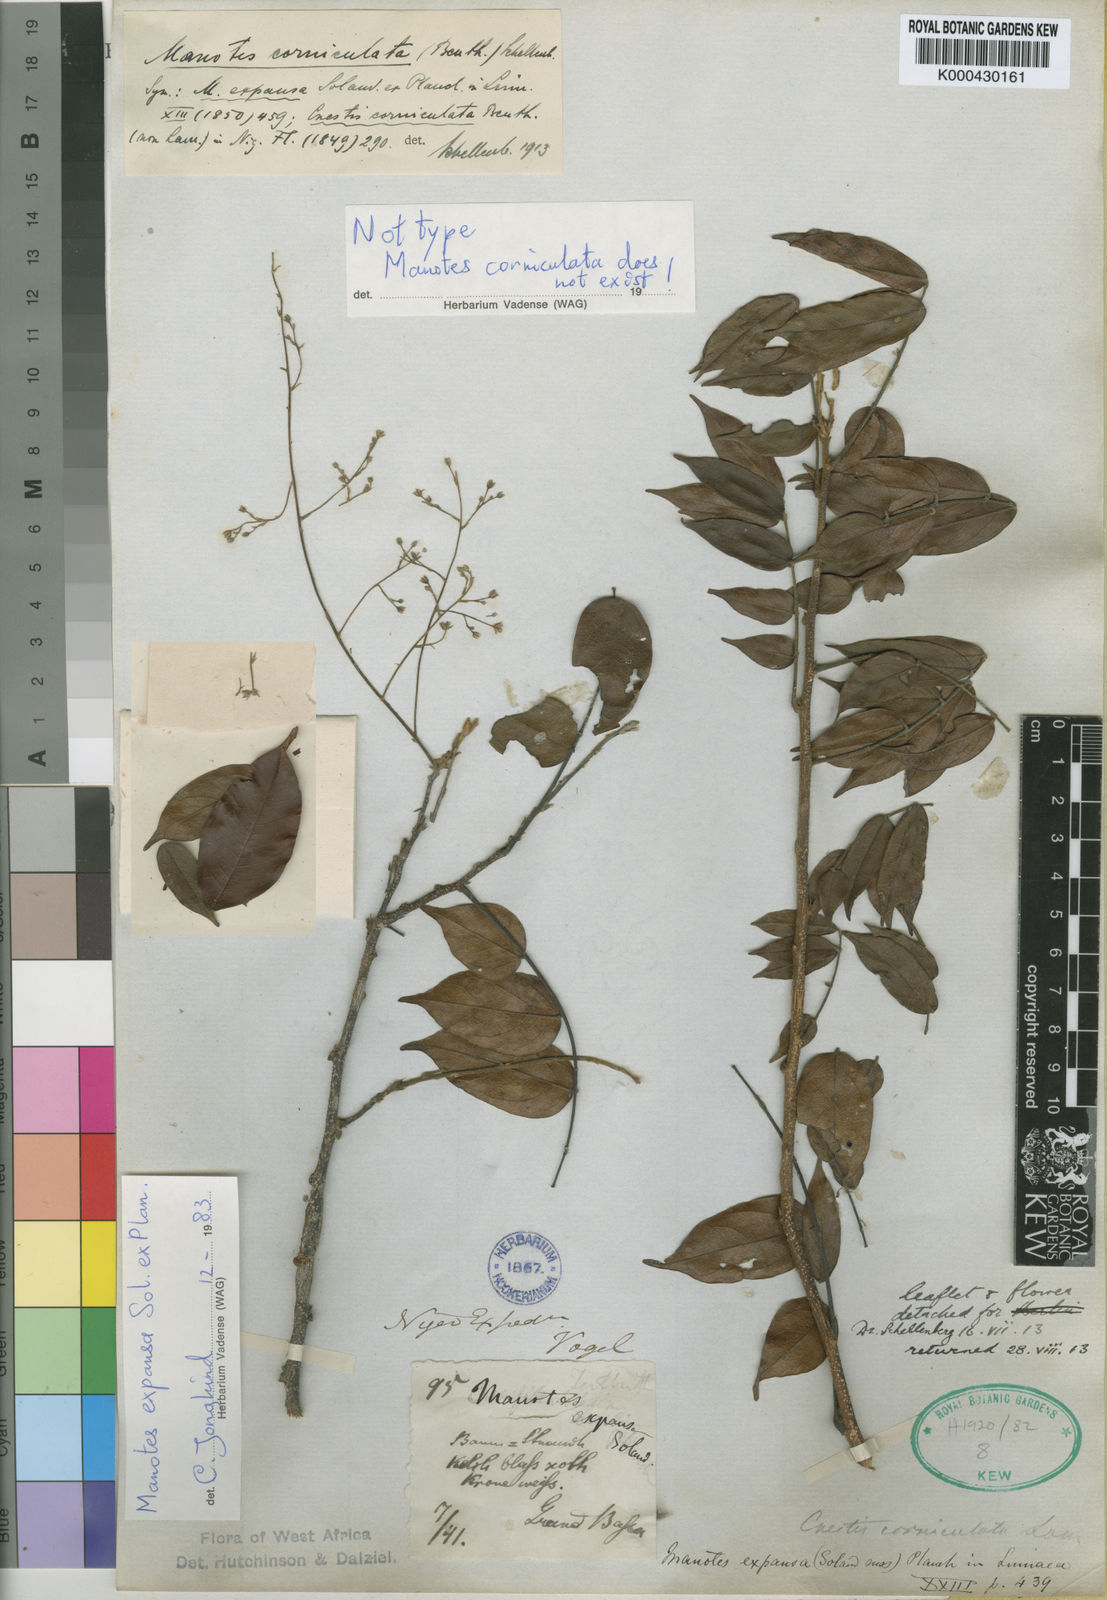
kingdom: Plantae
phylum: Tracheophyta
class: Magnoliopsida
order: Oxalidales
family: Connaraceae
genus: Manotes
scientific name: Manotes expansa
